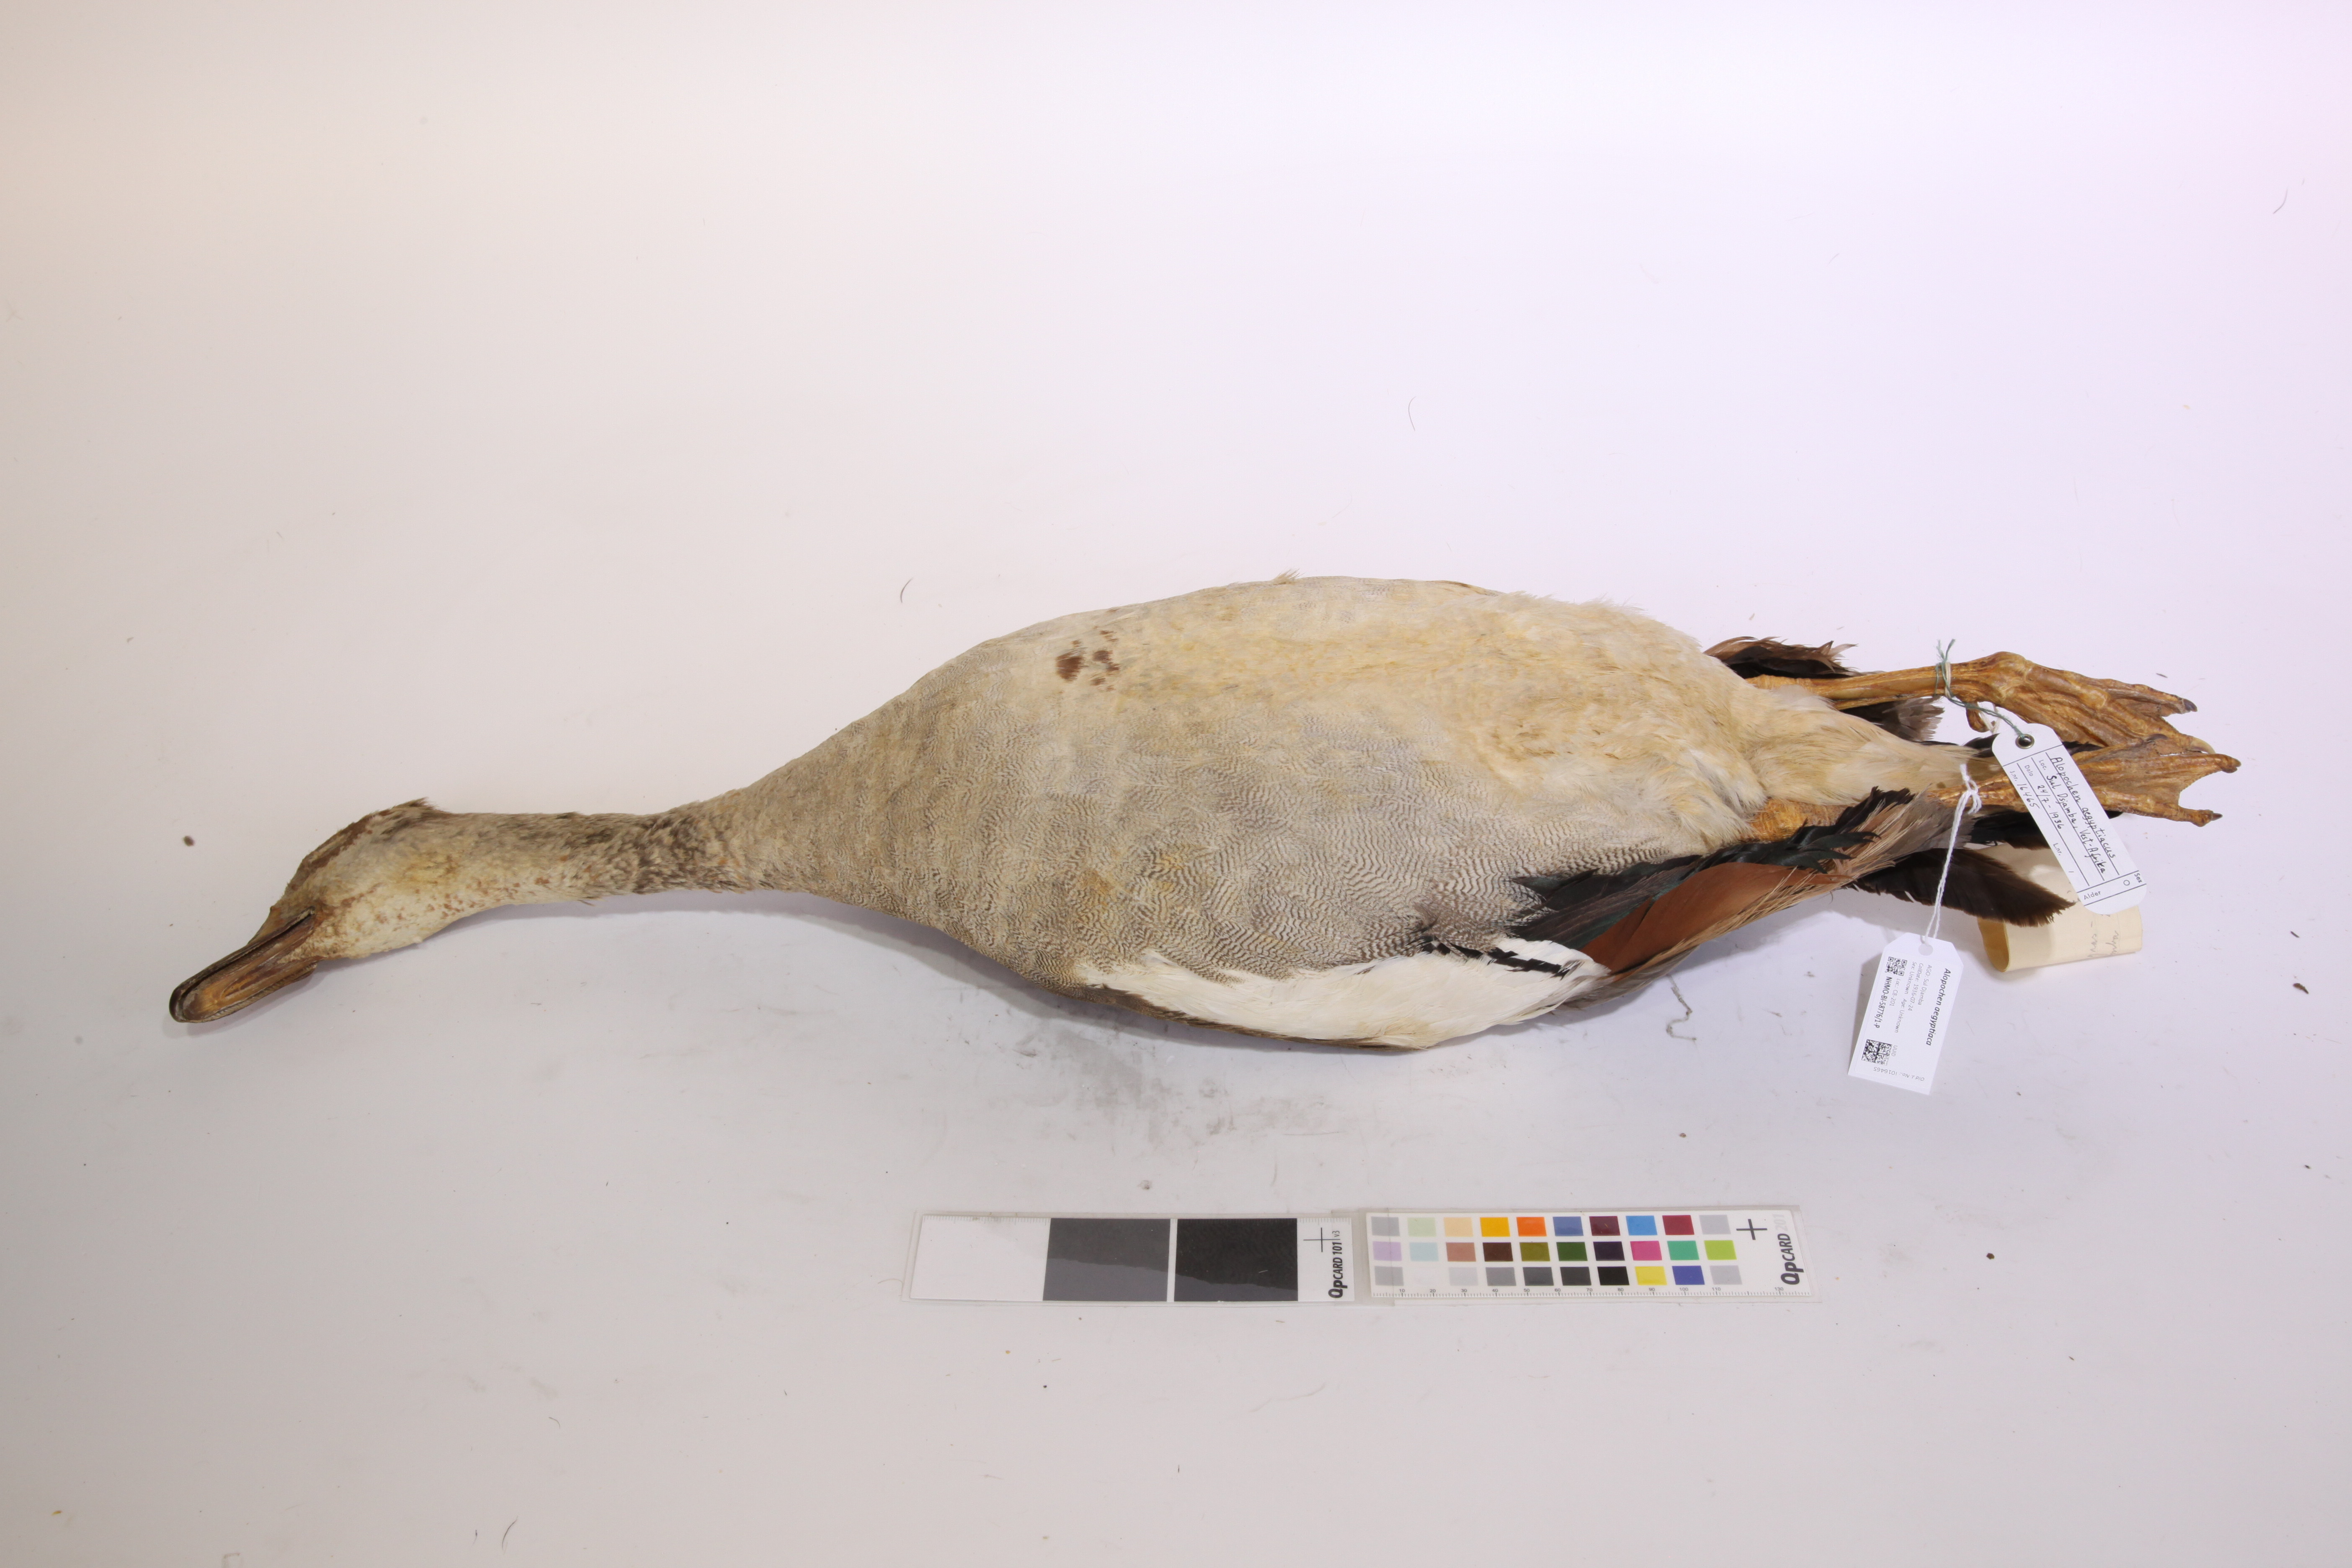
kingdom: Animalia
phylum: Chordata
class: Aves
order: Anseriformes
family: Anatidae
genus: Alopochen
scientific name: Alopochen aegyptiaca
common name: Egyptian goose
